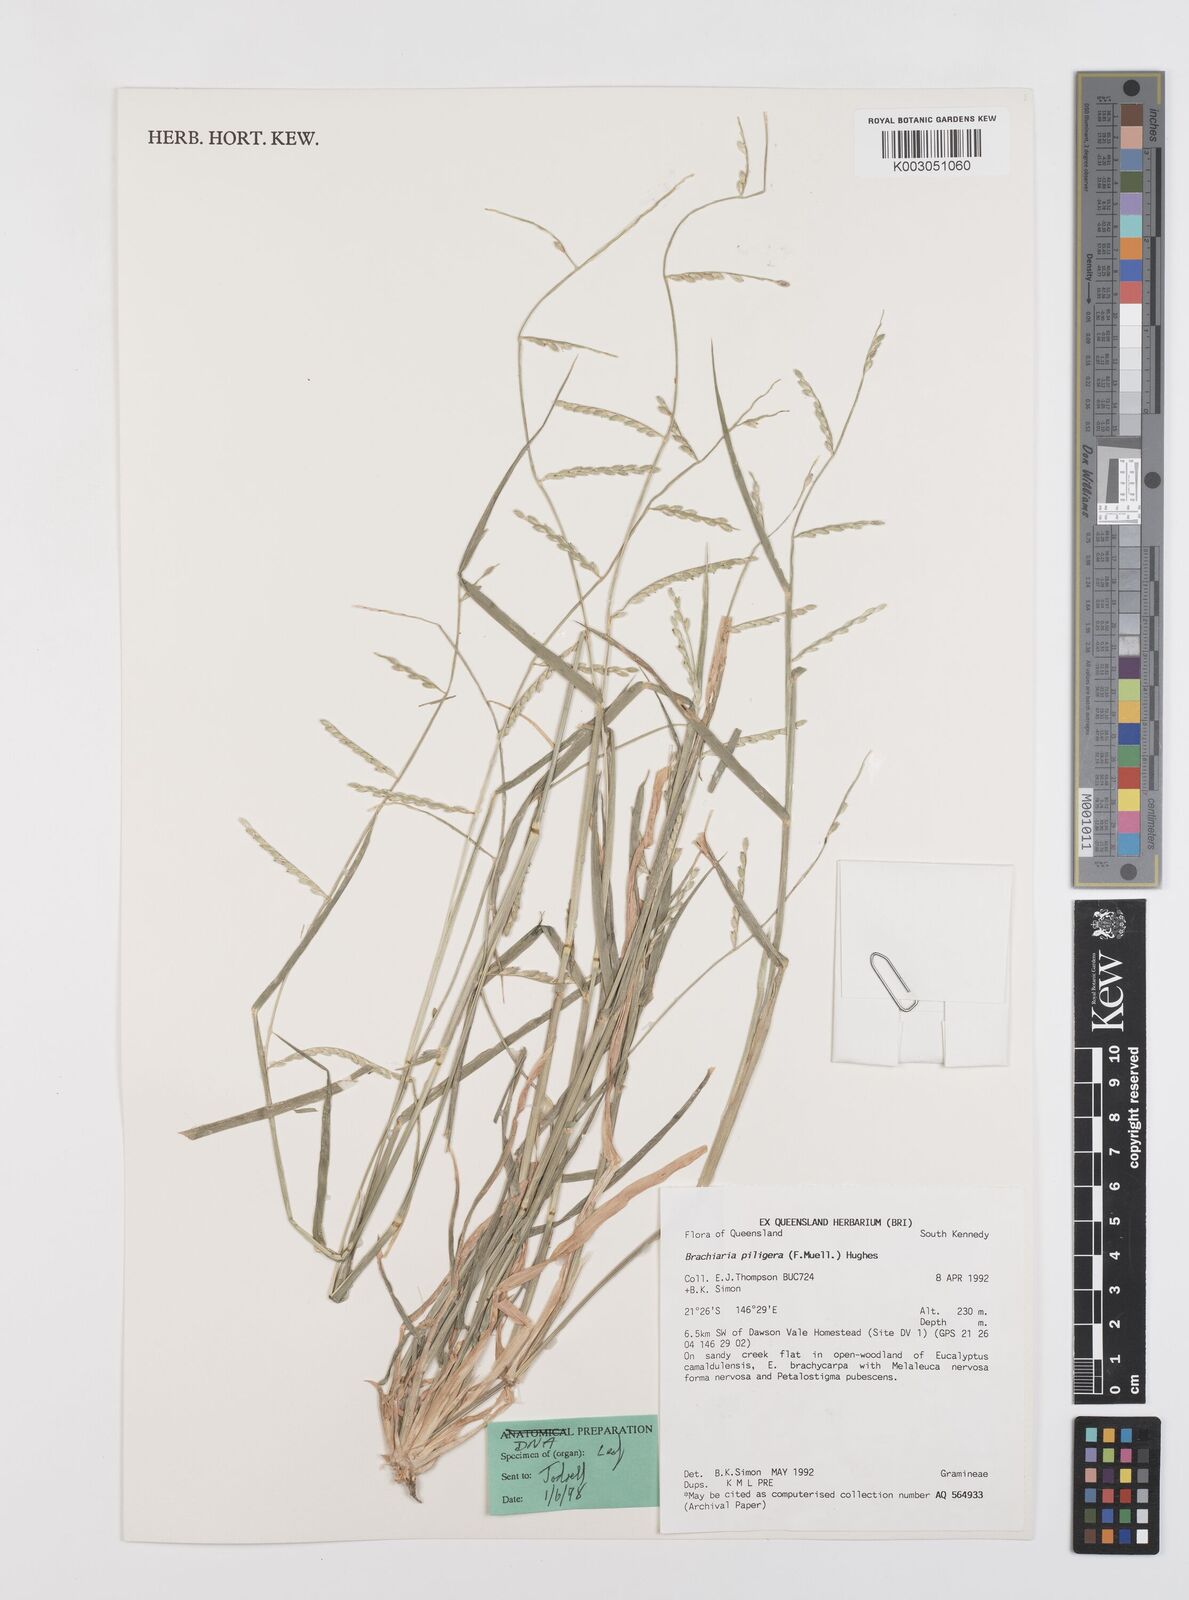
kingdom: Plantae
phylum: Tracheophyta
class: Liliopsida
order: Poales
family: Poaceae
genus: Urochloa
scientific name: Urochloa piligera
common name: Wattle signalgrass
